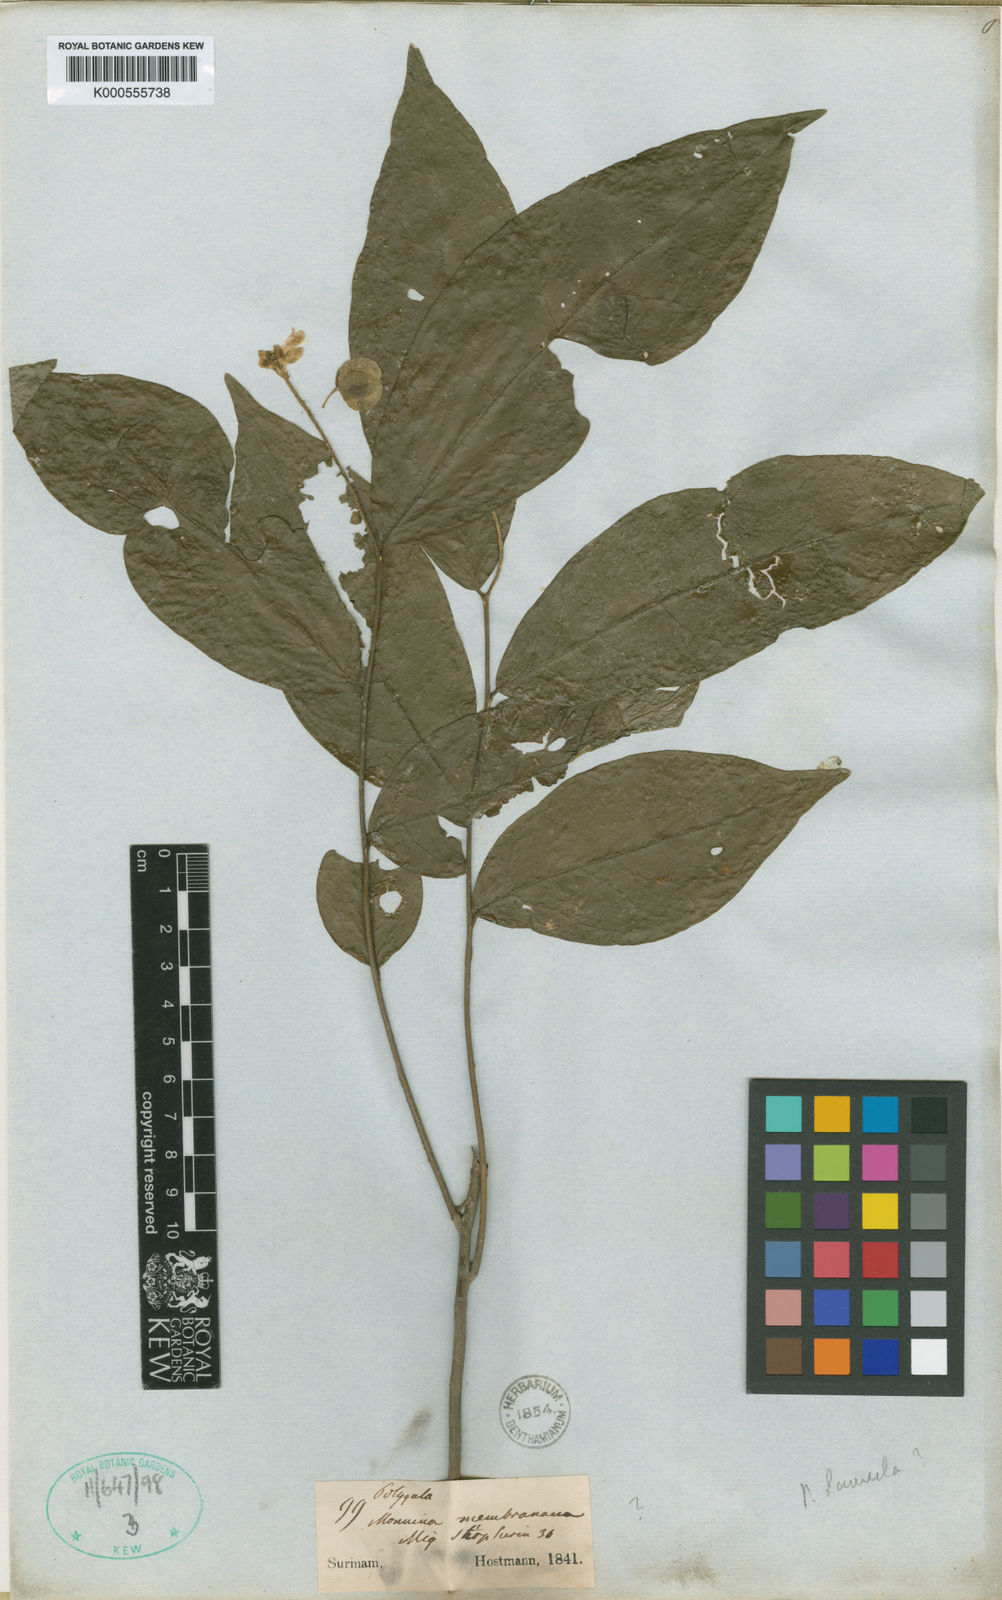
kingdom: Plantae
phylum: Tracheophyta
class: Magnoliopsida
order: Fabales
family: Polygalaceae
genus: Polygala
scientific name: Polygala membranacea
